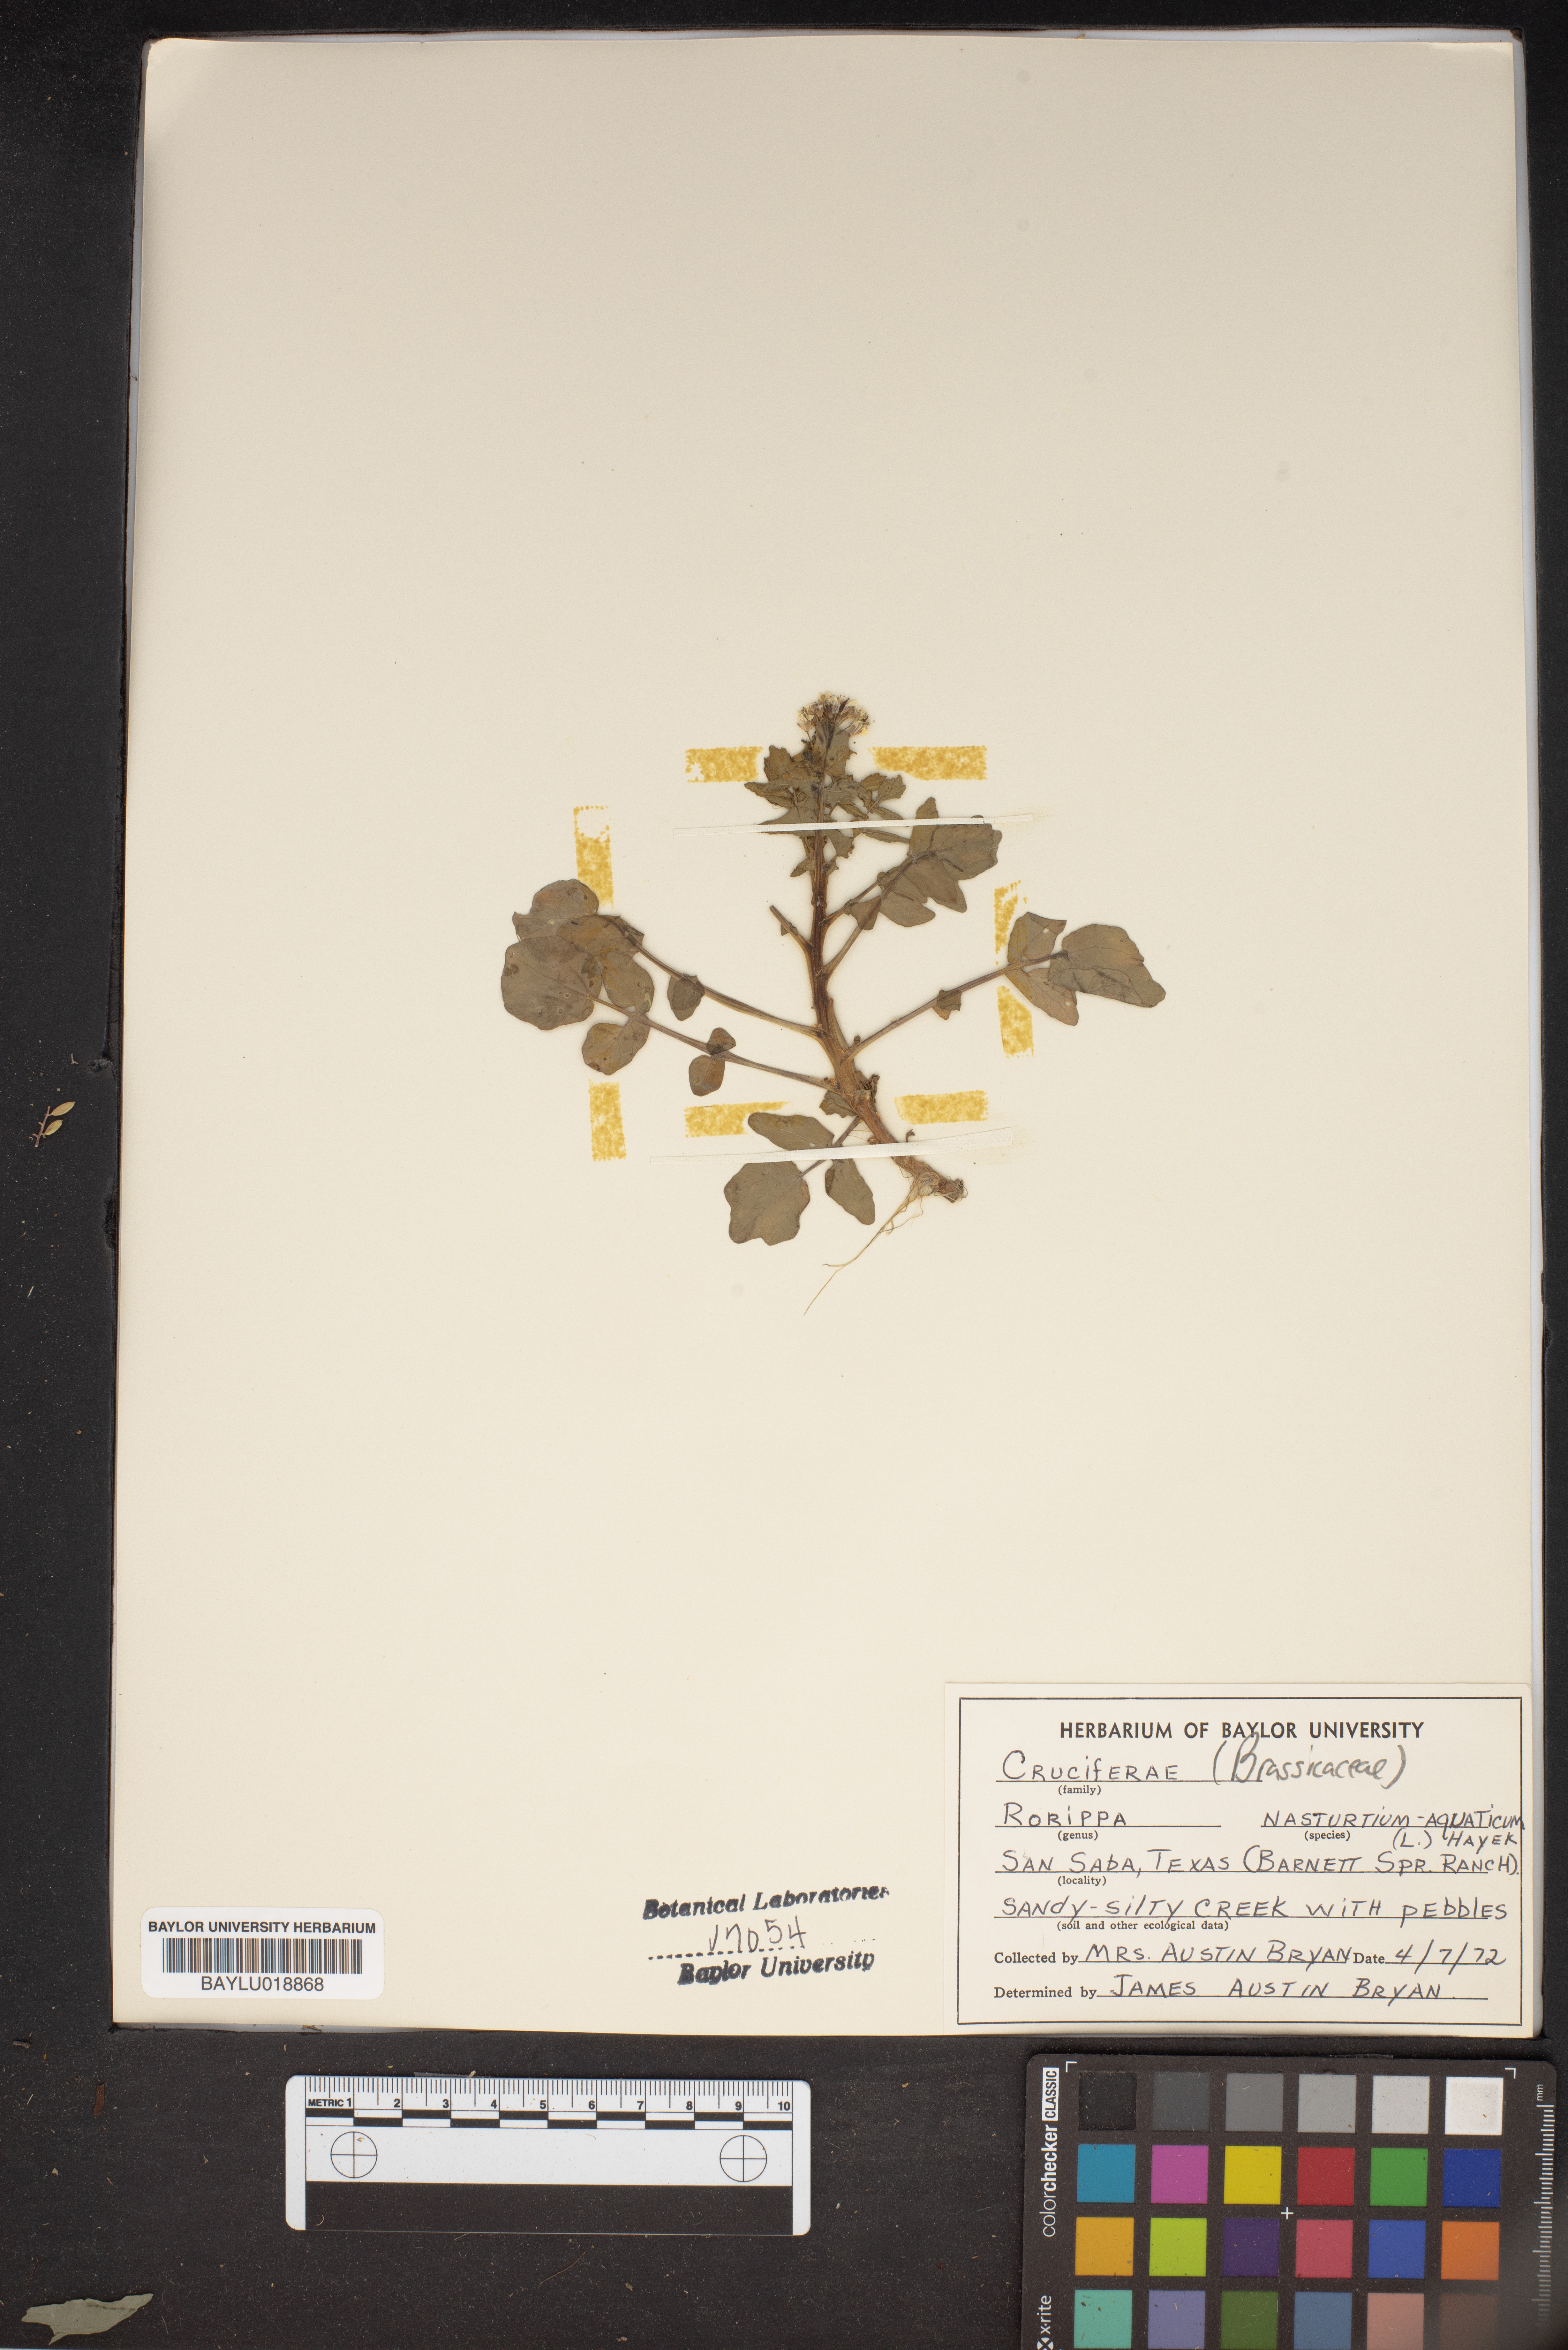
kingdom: Plantae
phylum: Tracheophyta
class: Magnoliopsida
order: Brassicales
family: Brassicaceae
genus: Nasturtium
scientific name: Nasturtium officinale
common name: Watercress
